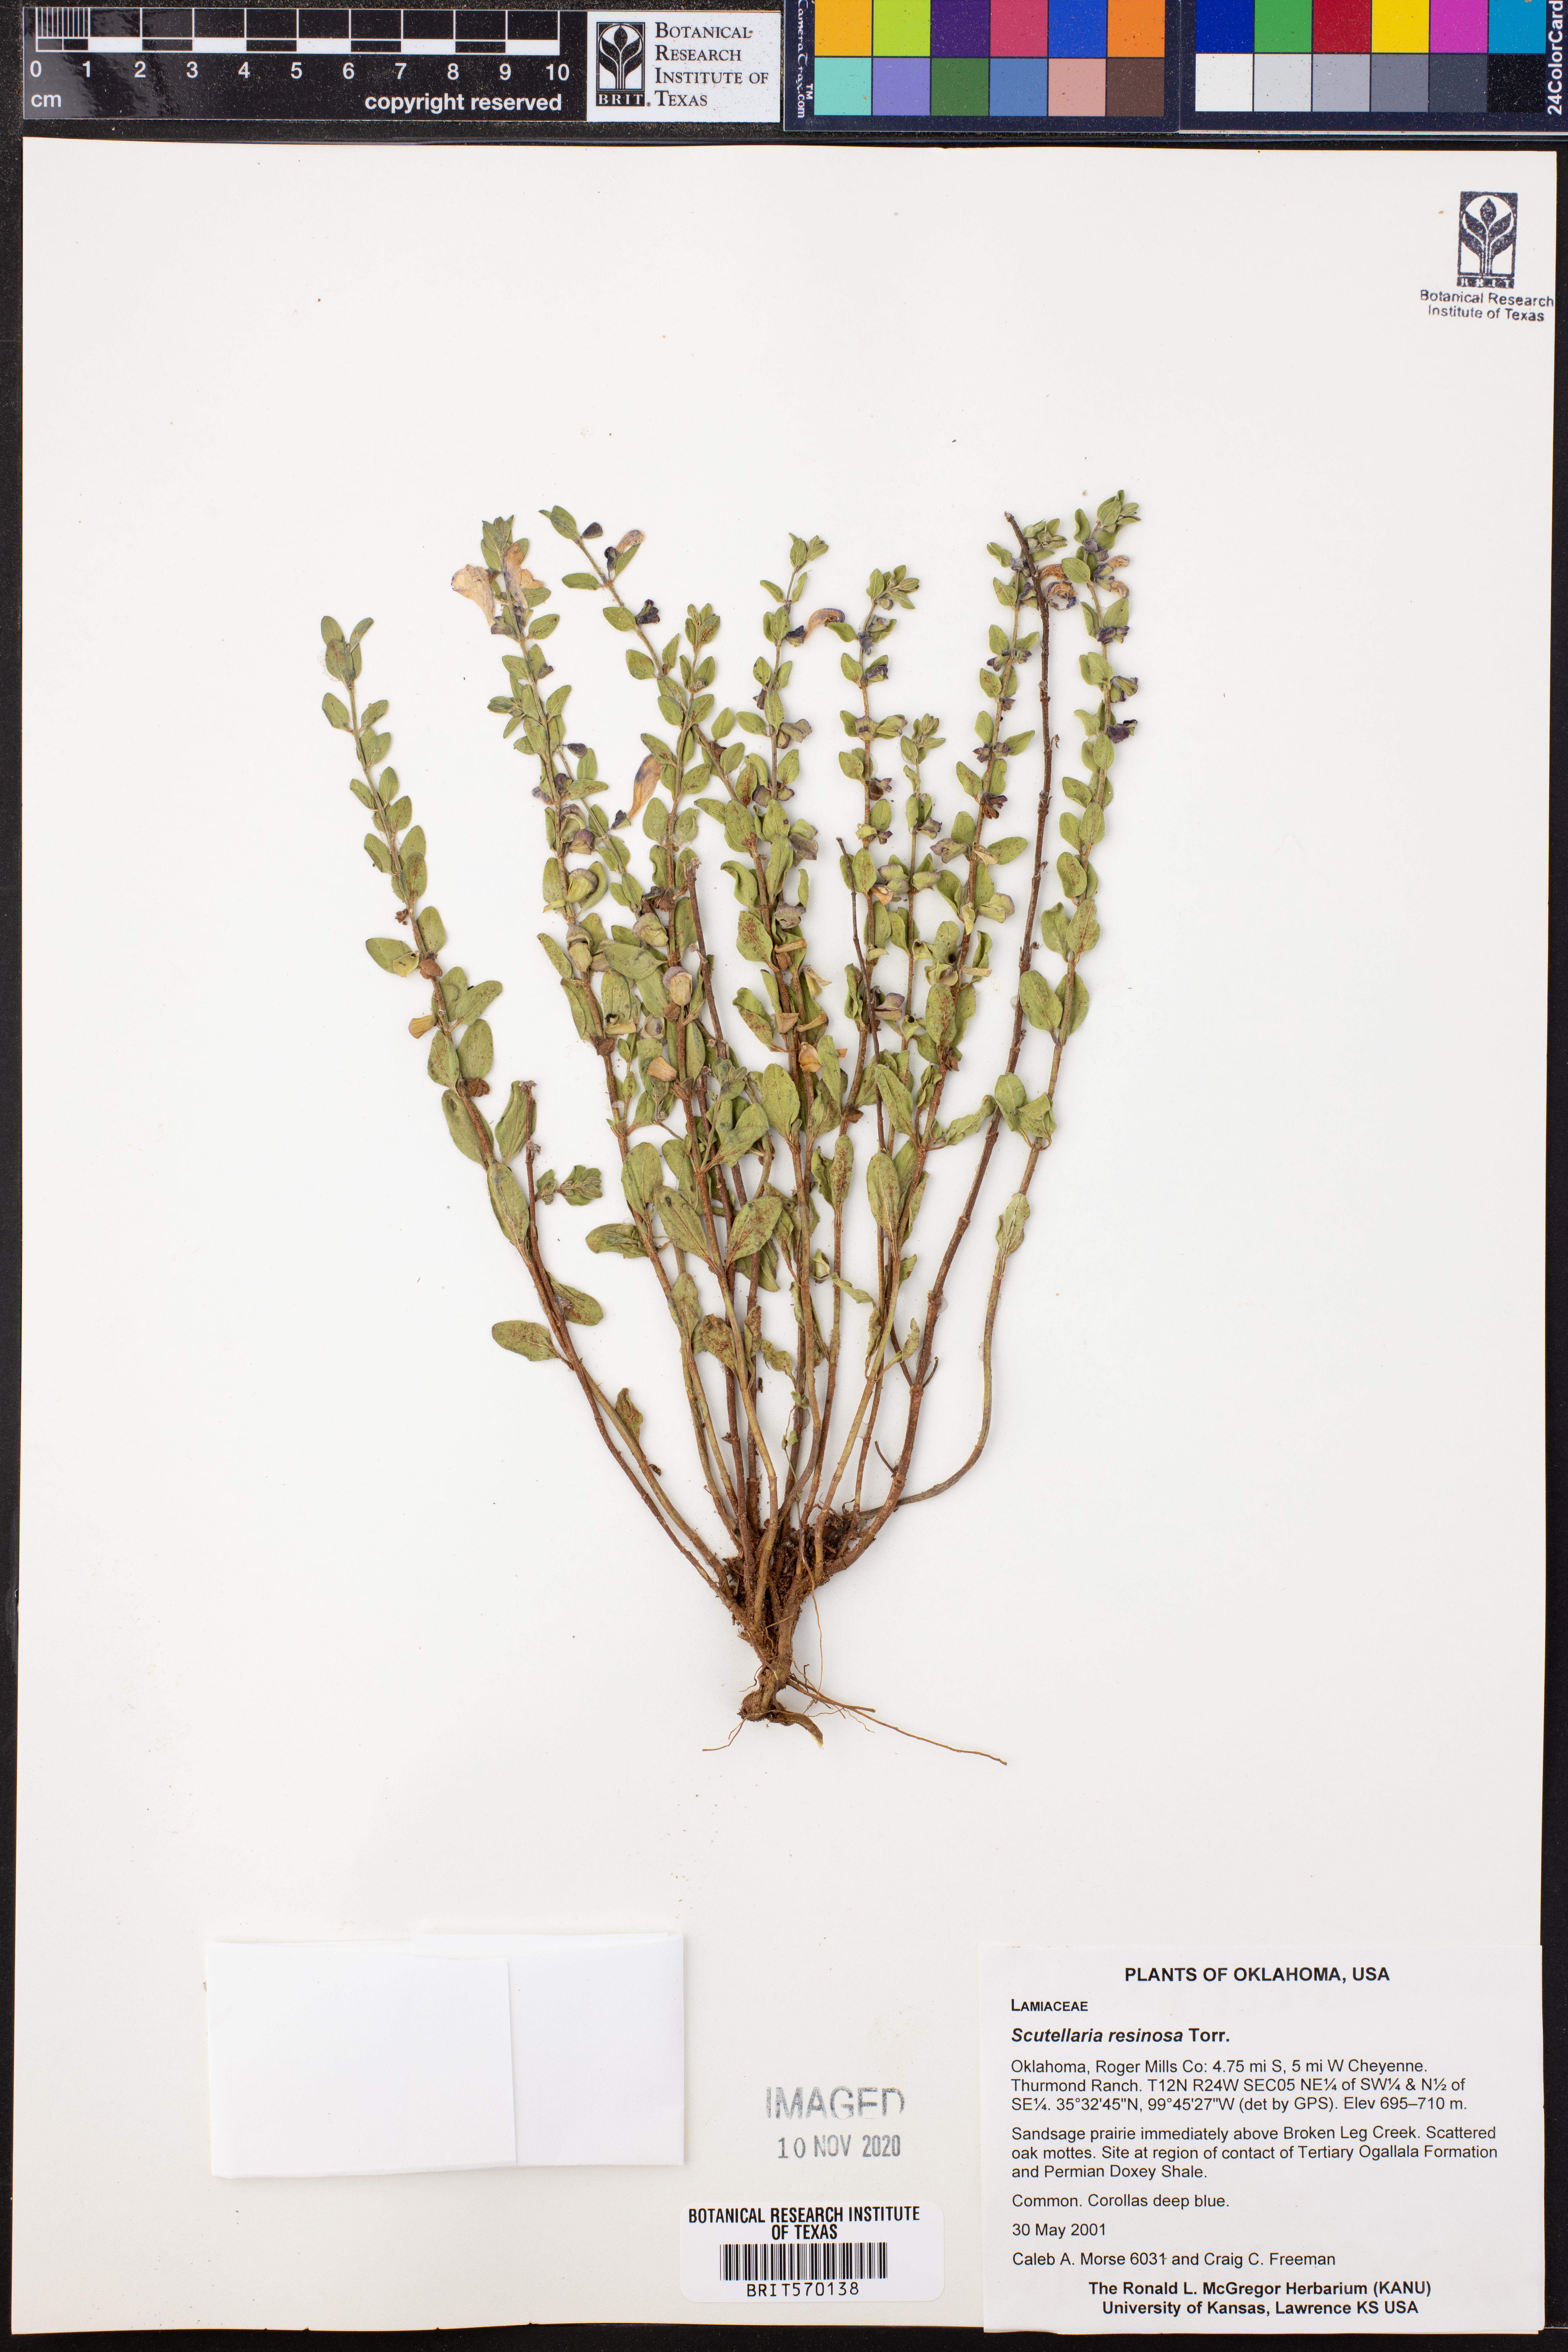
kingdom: Plantae
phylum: Tracheophyta
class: Magnoliopsida
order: Lamiales
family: Lamiaceae
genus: Scutellaria
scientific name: Scutellaria resinosa
